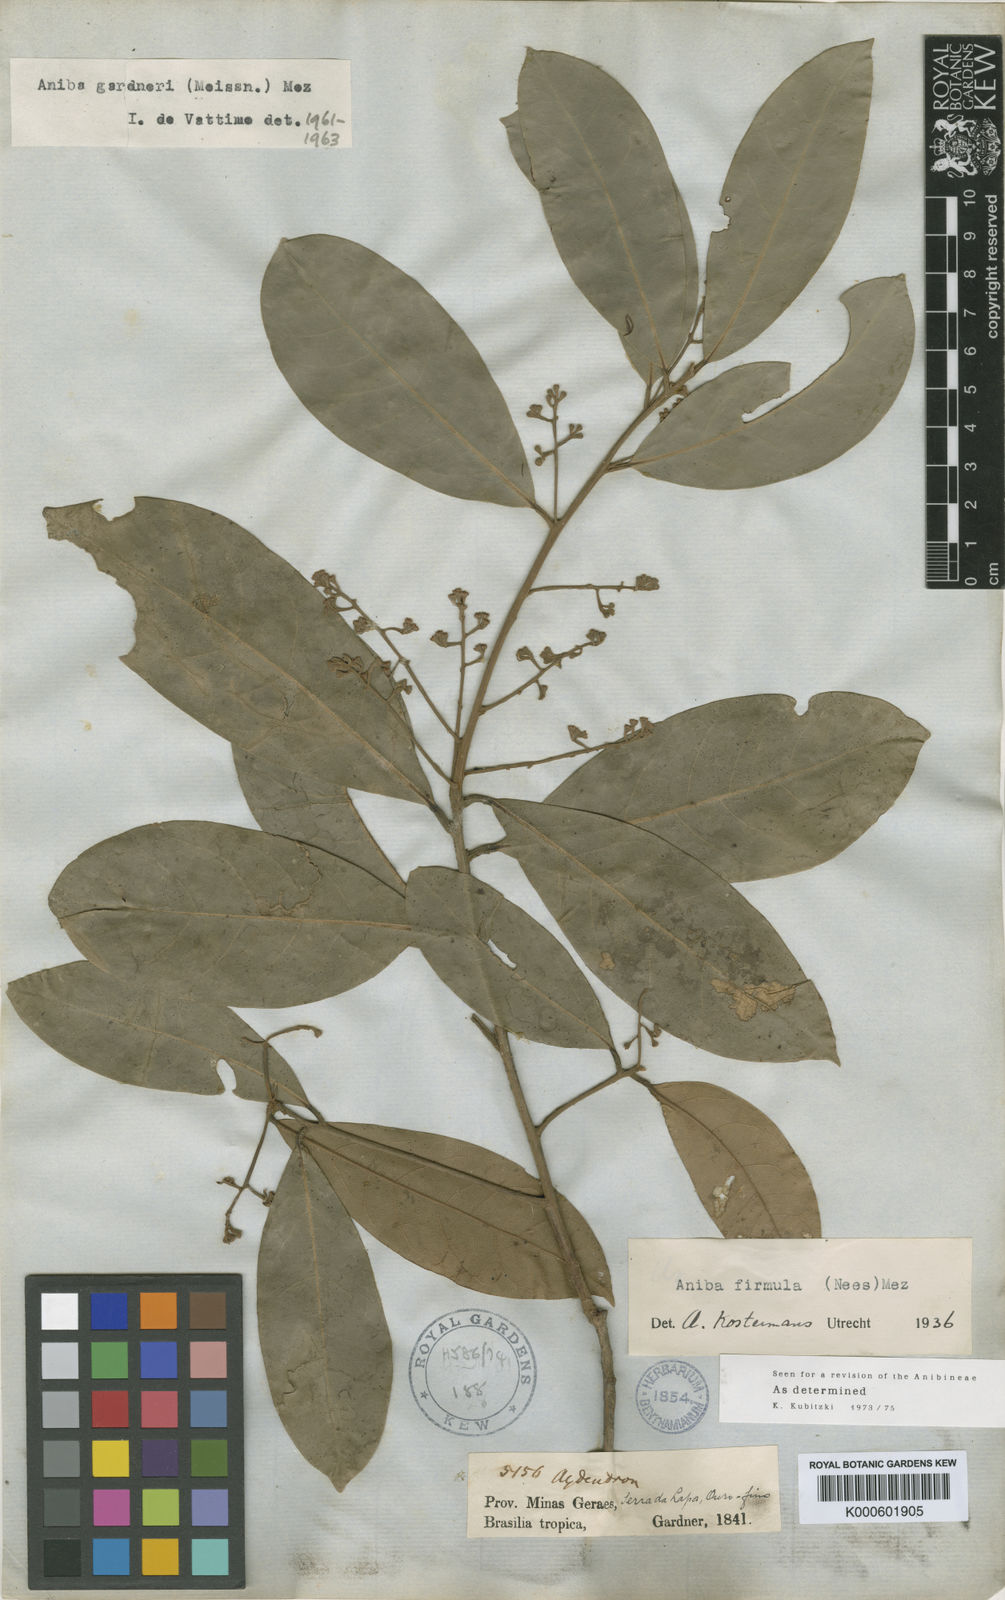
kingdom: Plantae
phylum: Tracheophyta
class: Magnoliopsida
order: Laurales
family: Lauraceae
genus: Aniba
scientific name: Aniba firmula
